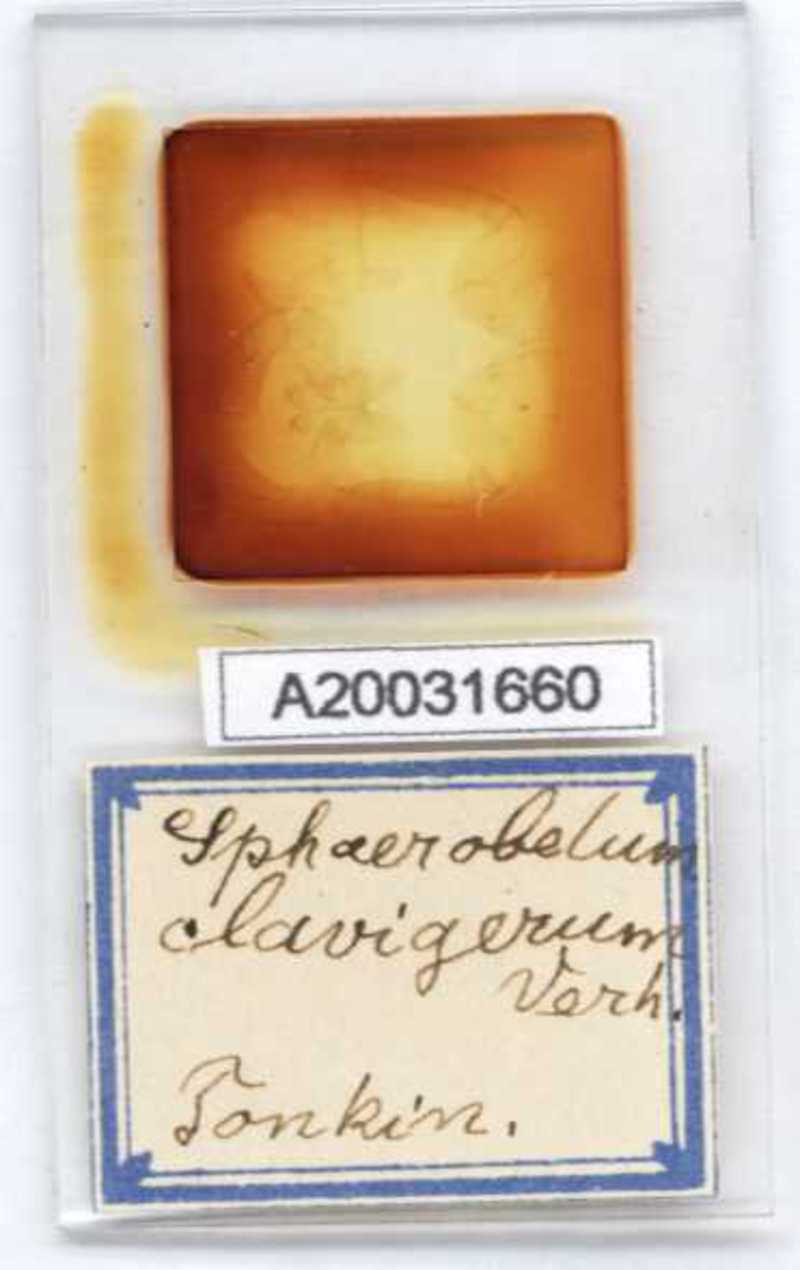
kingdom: Animalia
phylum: Arthropoda
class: Diplopoda
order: Sphaerotheriida
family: Zephroniidae
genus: Sphaerobelum
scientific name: Sphaerobelum clavigerum
